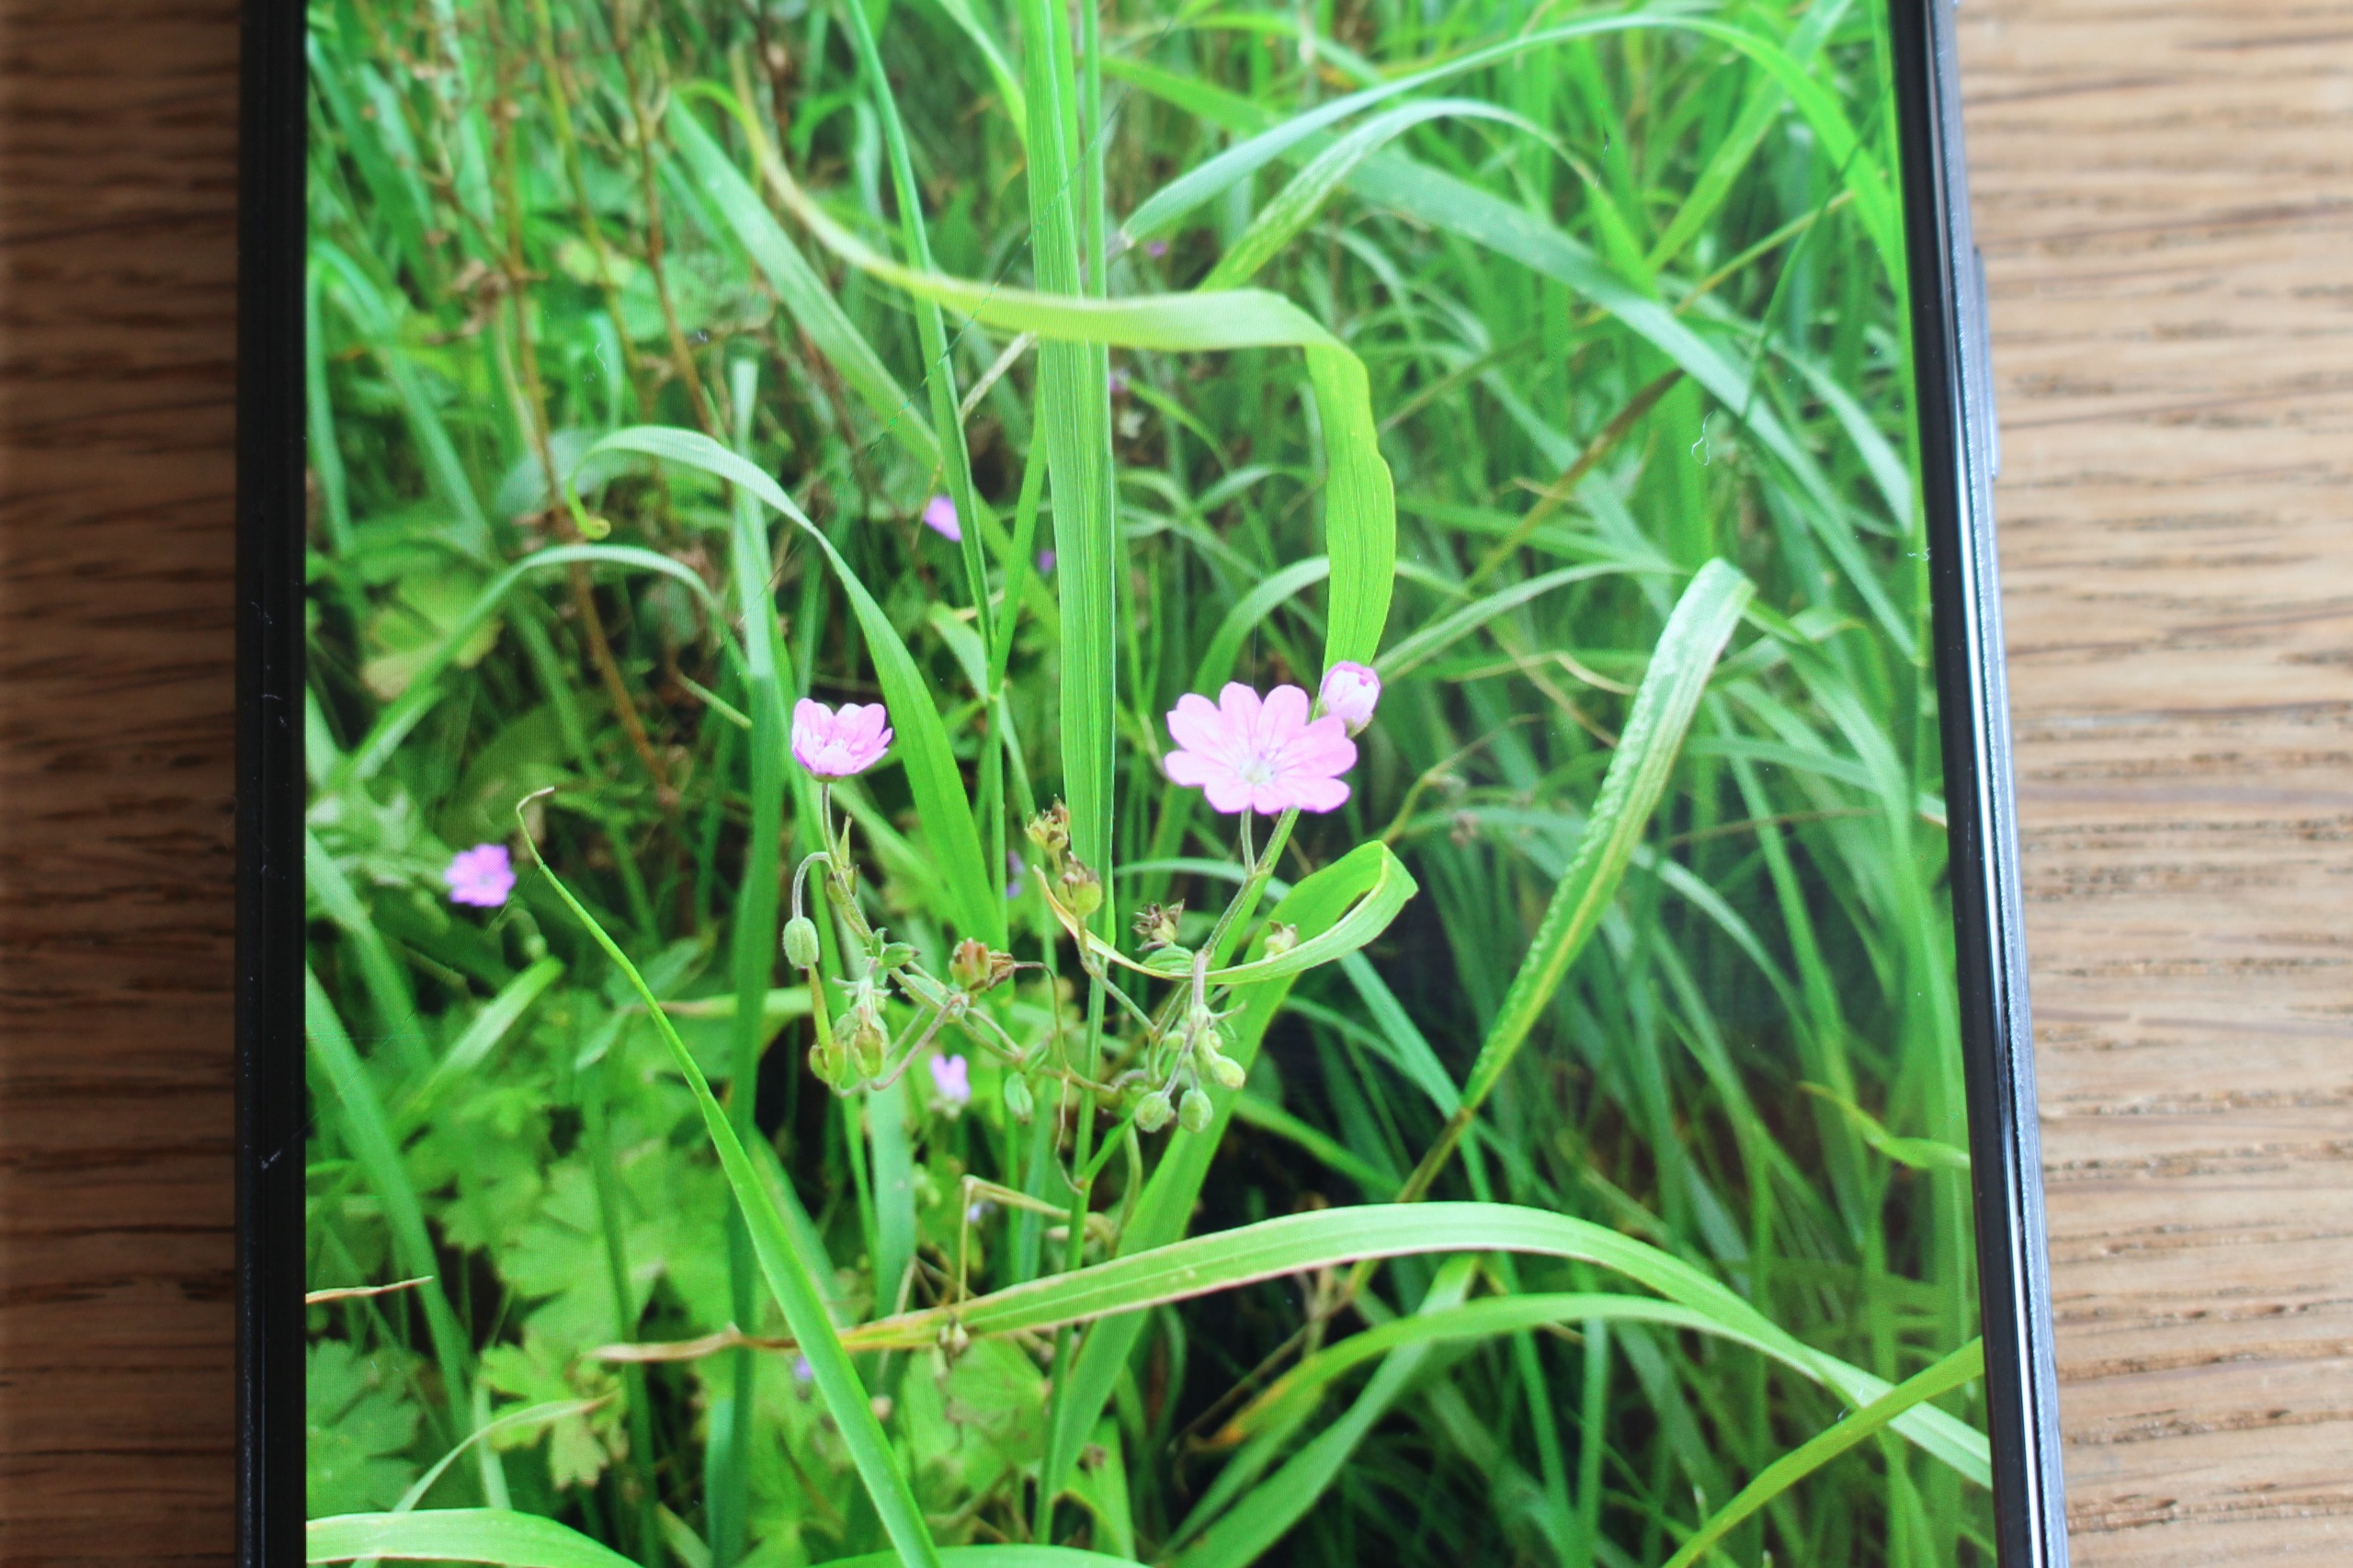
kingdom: Plantae
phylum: Tracheophyta
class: Magnoliopsida
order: Geraniales
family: Geraniaceae
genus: Geranium
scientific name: Geranium pyrenaicum
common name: Pyrenæisk storkenæb
